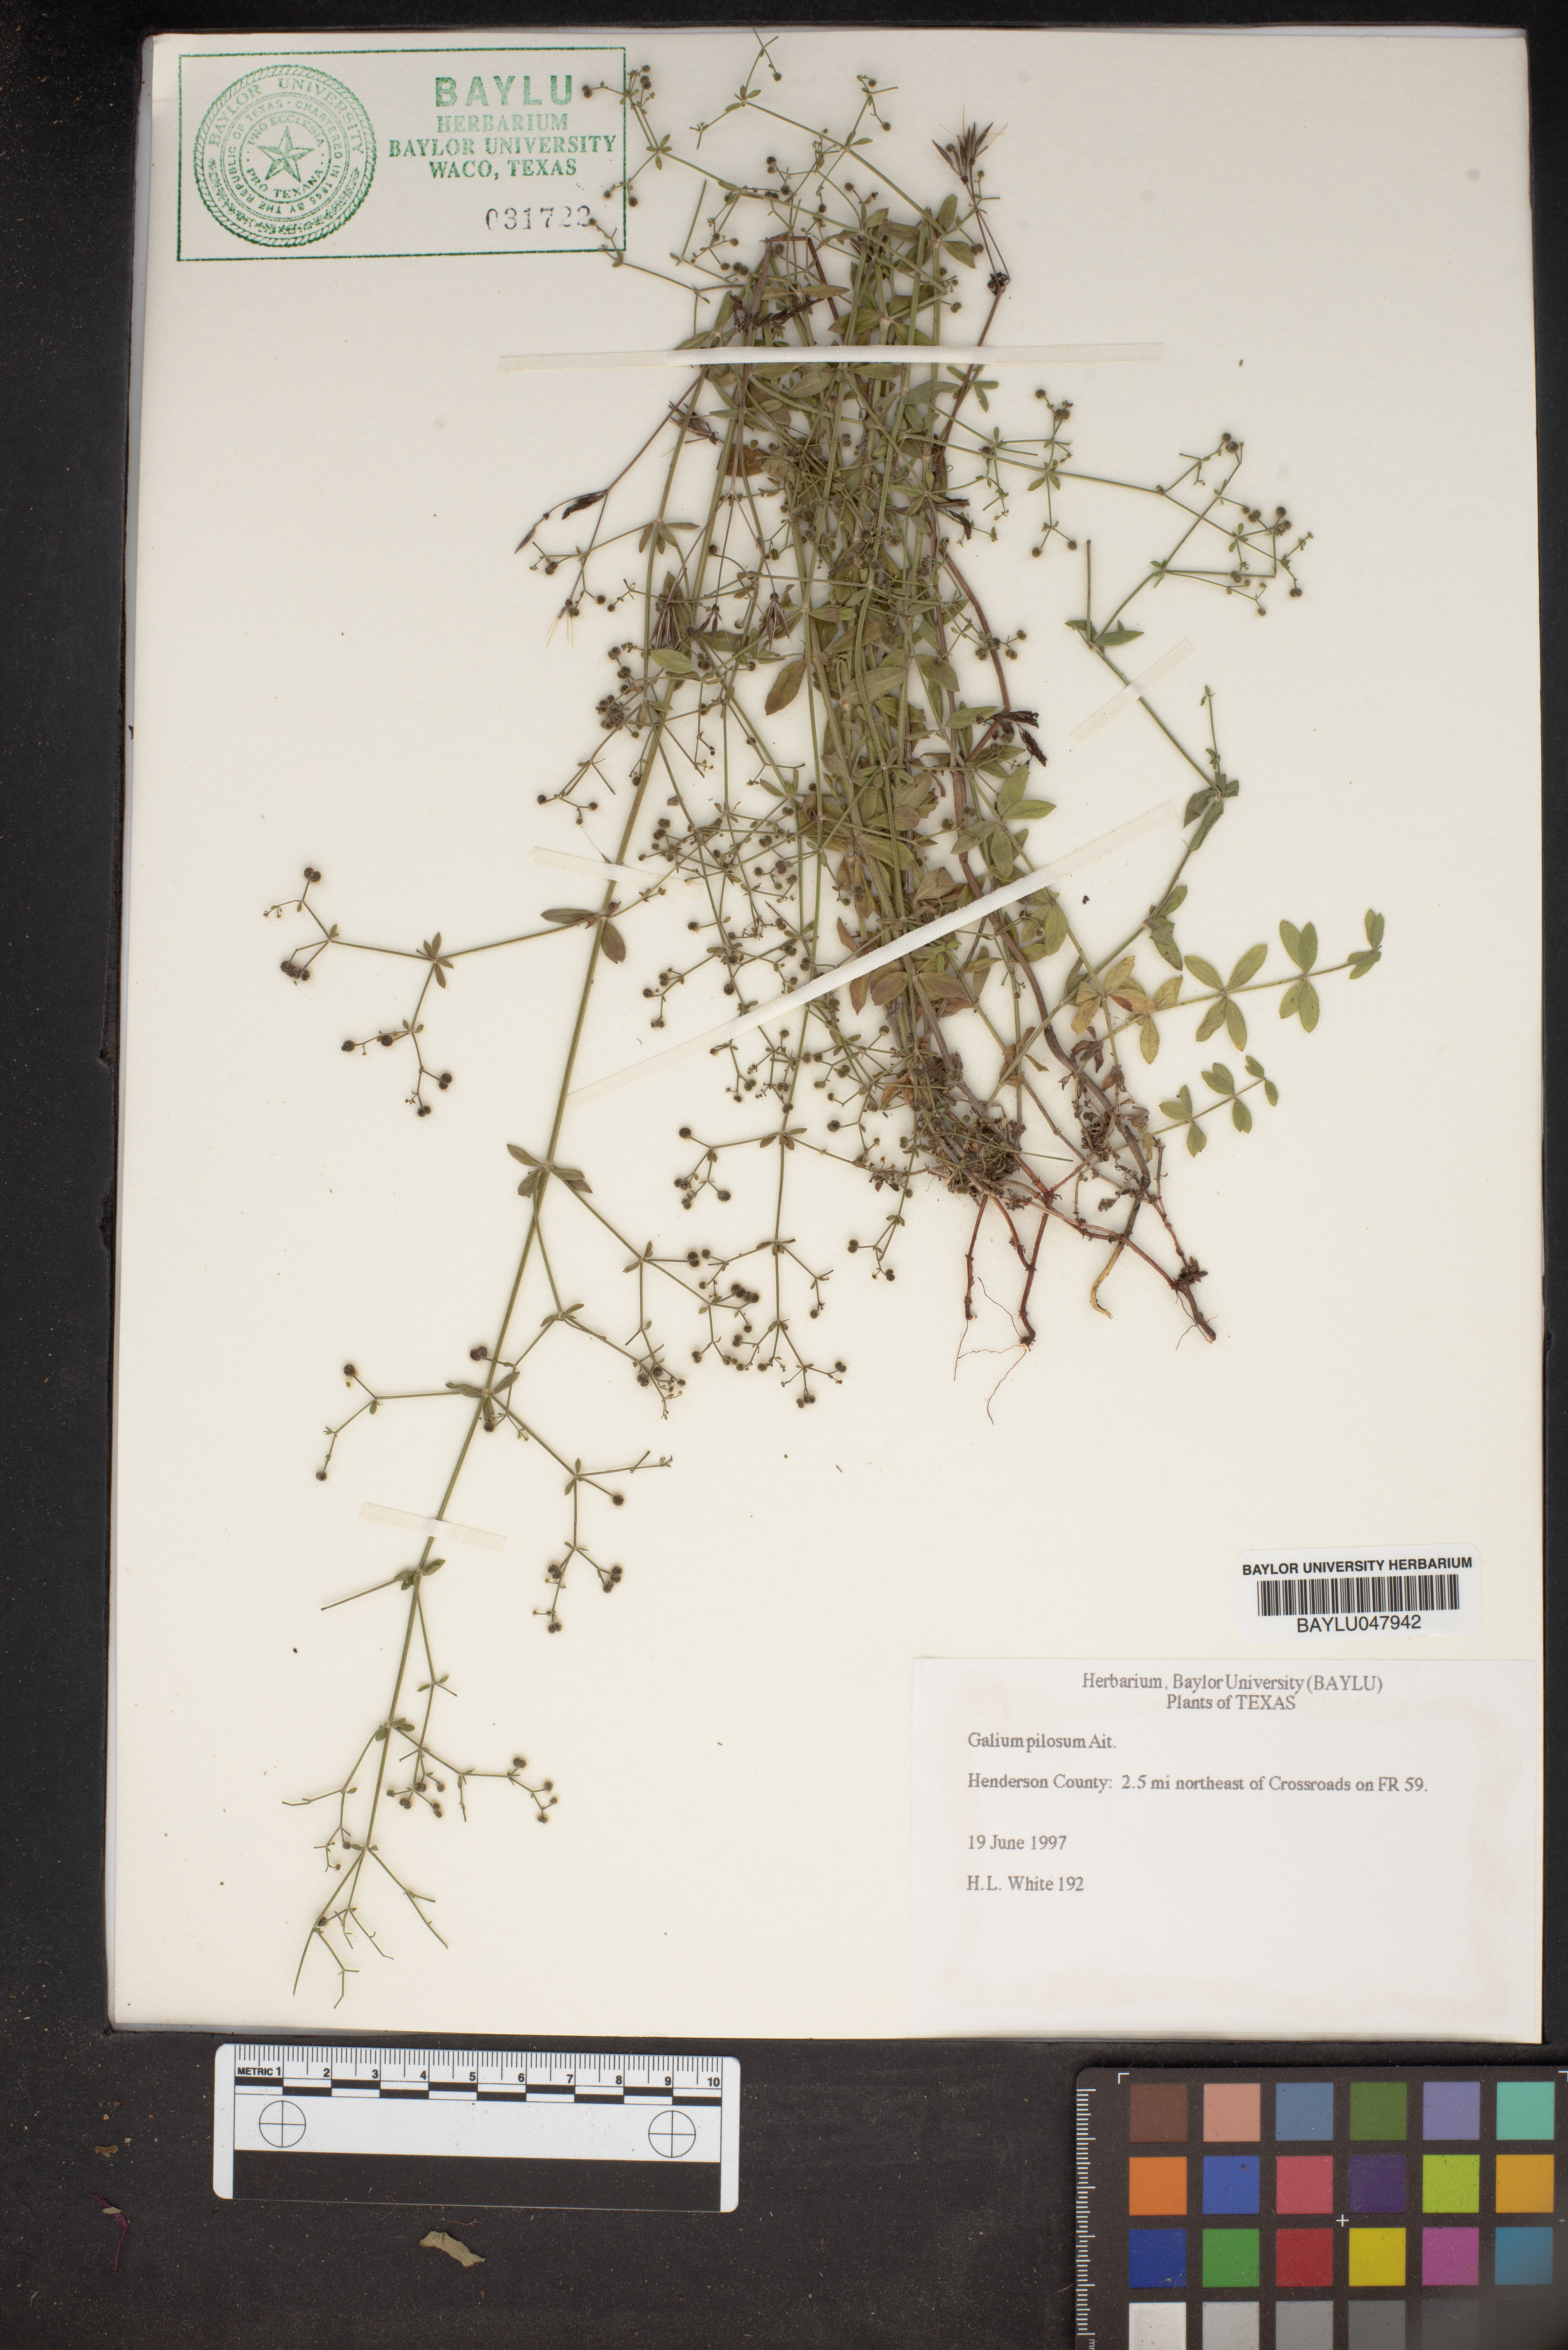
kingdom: Plantae
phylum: Tracheophyta
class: Magnoliopsida
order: Gentianales
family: Rubiaceae
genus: Galium
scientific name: Galium pilosum
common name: Hairy bedstraw
